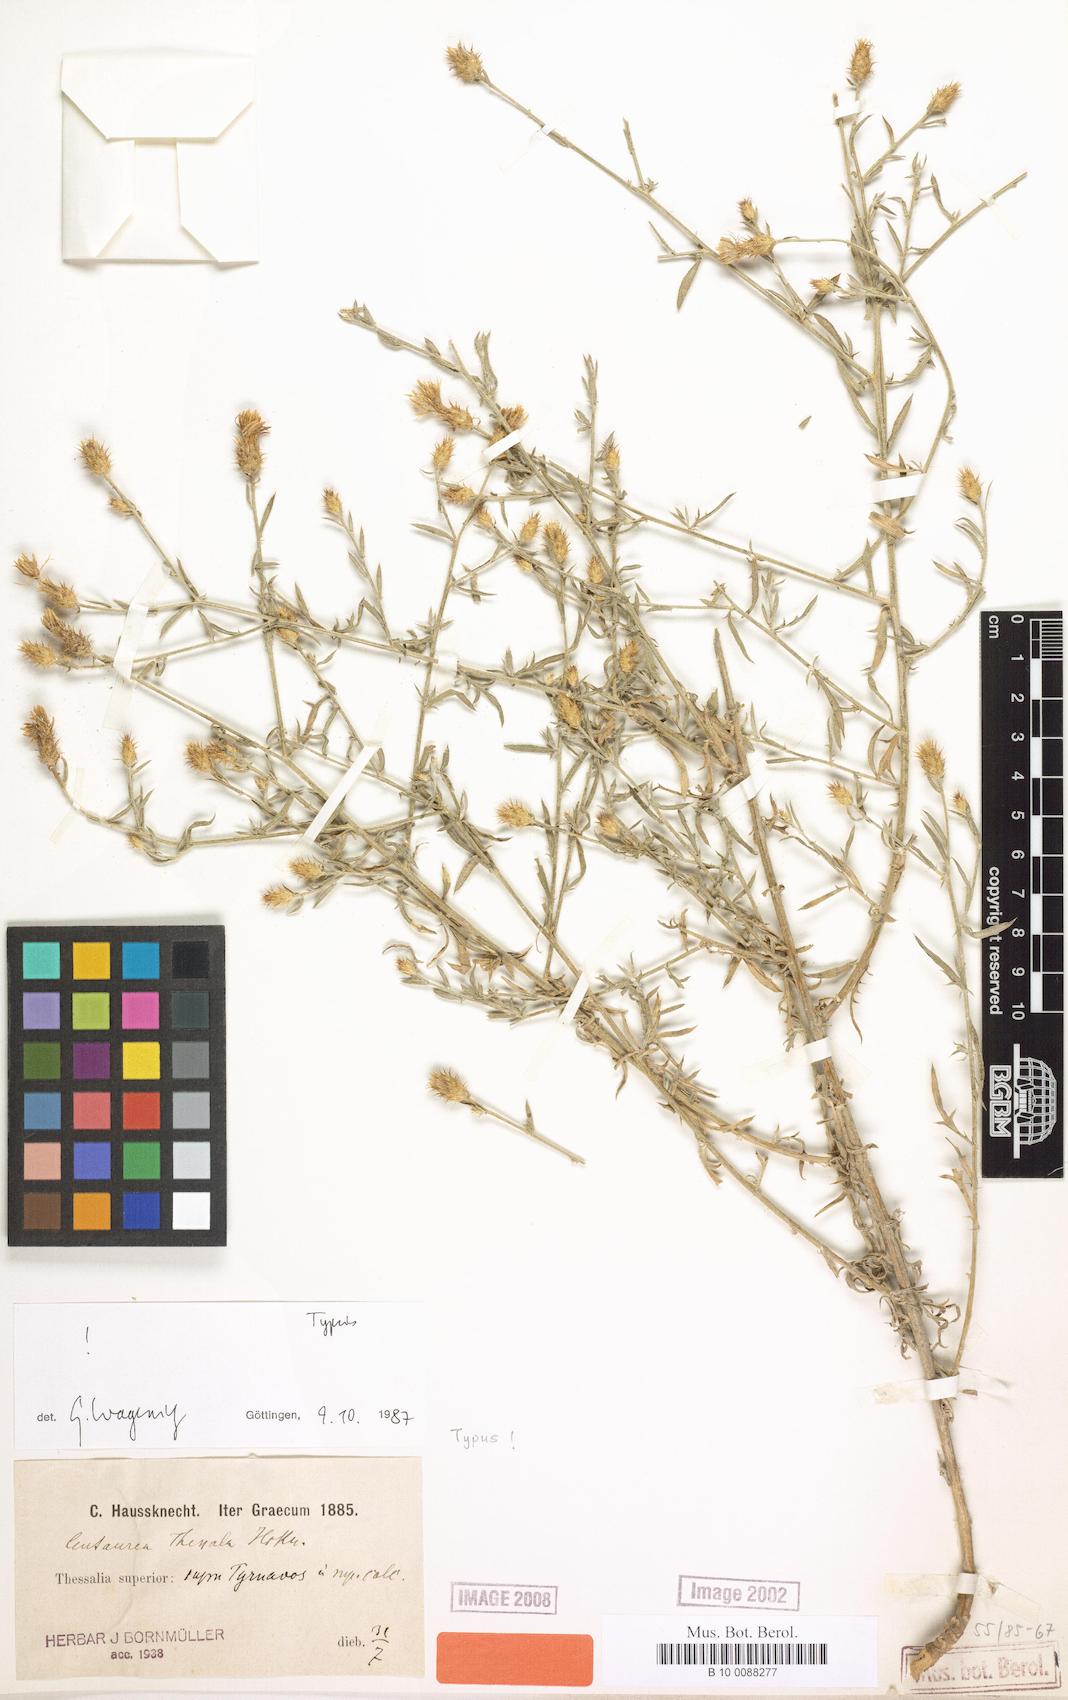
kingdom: Plantae
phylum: Tracheophyta
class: Magnoliopsida
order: Asterales
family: Asteraceae
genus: Centaurea
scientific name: Centaurea thessala
